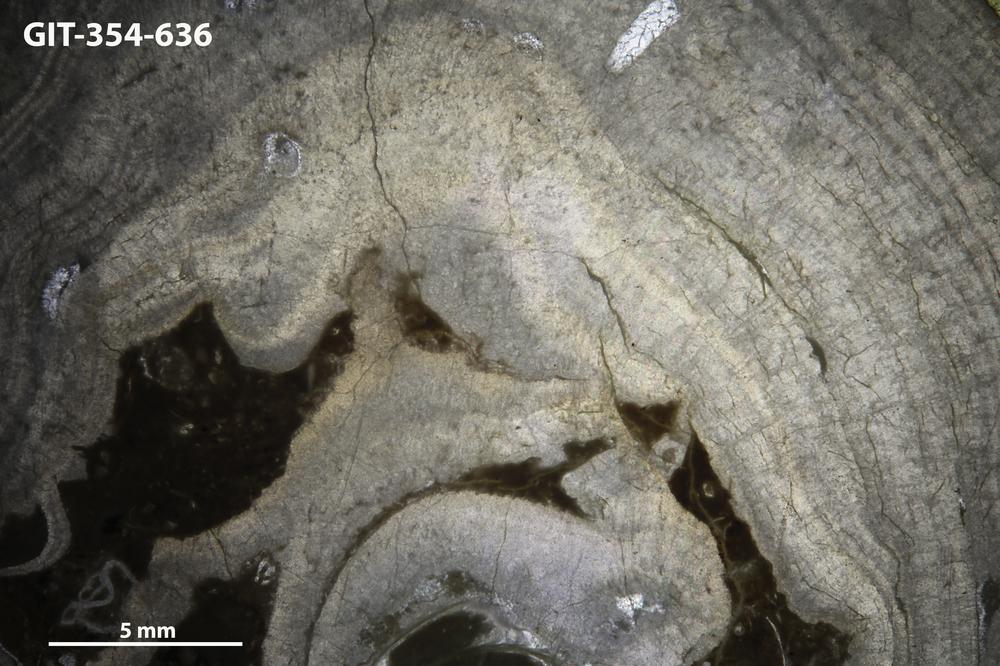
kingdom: Animalia
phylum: Porifera
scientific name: Porifera
